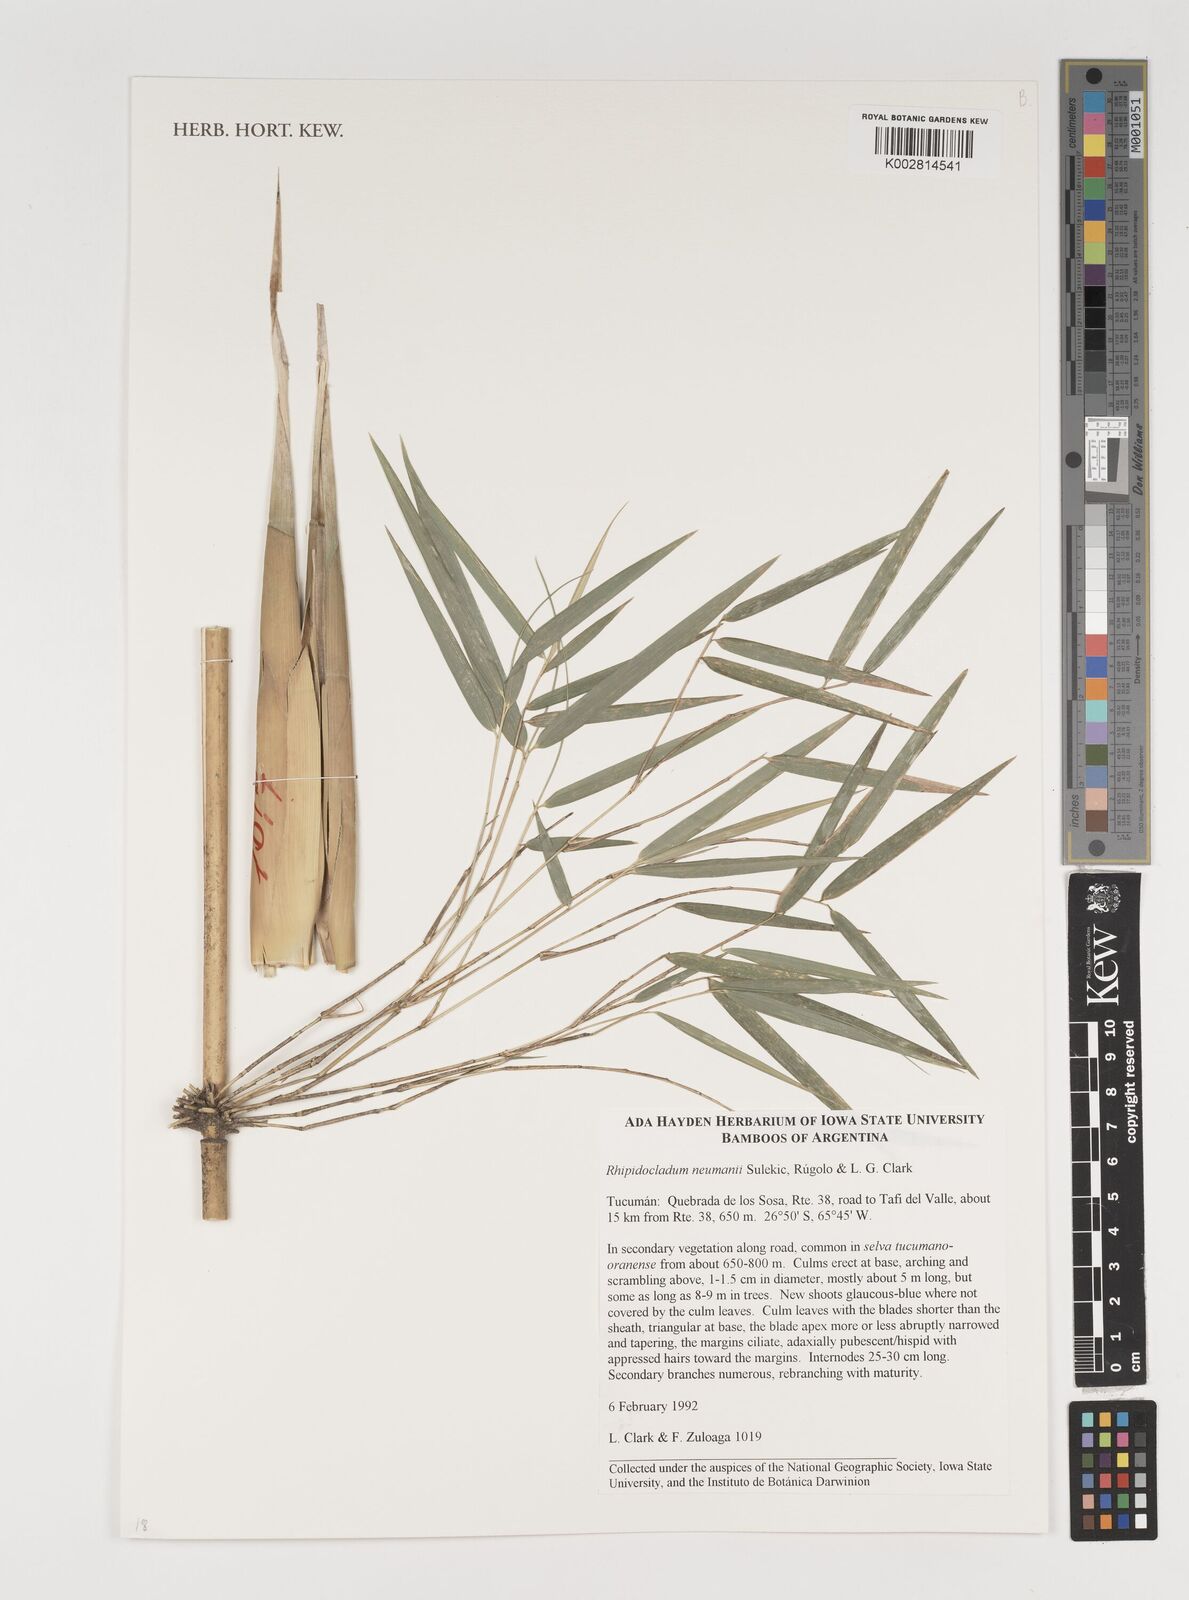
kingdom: Plantae
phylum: Tracheophyta
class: Liliopsida
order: Poales
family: Poaceae
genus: Rhipidocladum
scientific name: Rhipidocladum neumannii
